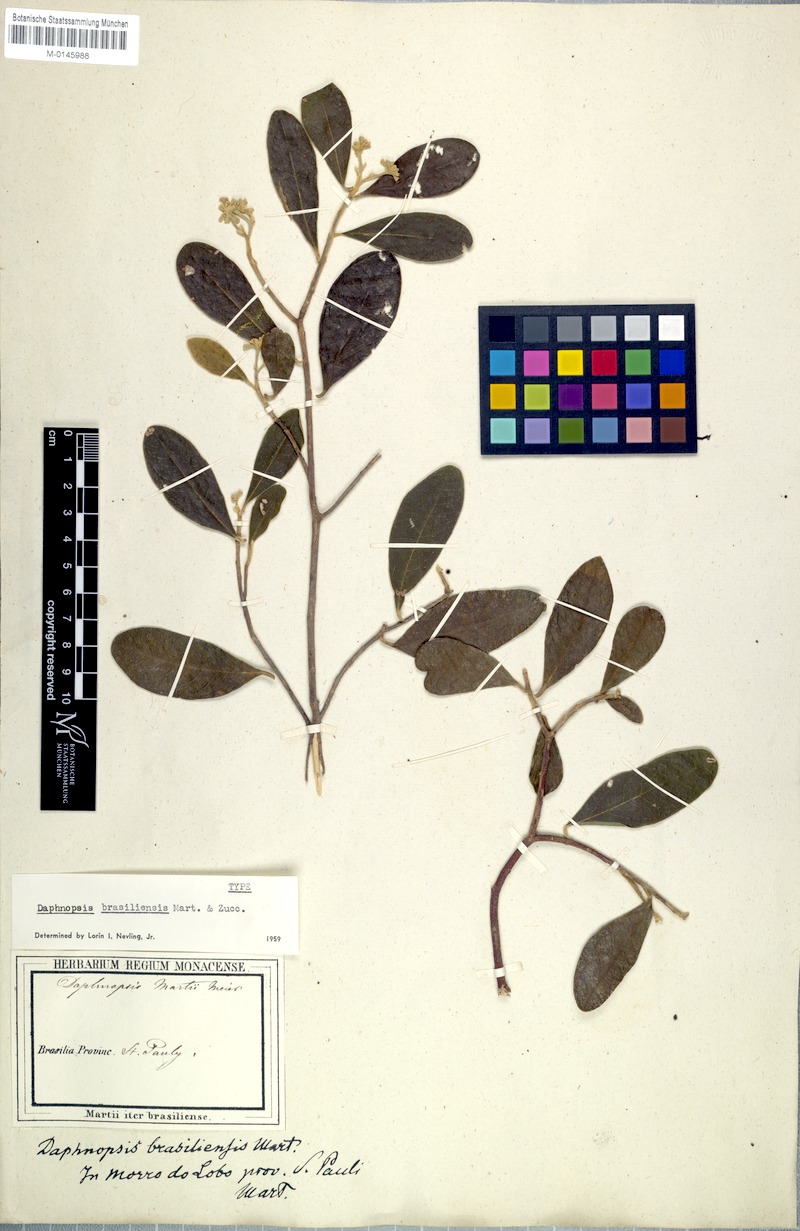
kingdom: Plantae
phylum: Tracheophyta
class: Magnoliopsida
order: Malvales
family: Thymelaeaceae
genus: Daphnopsis
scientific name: Daphnopsis brasiliensis
